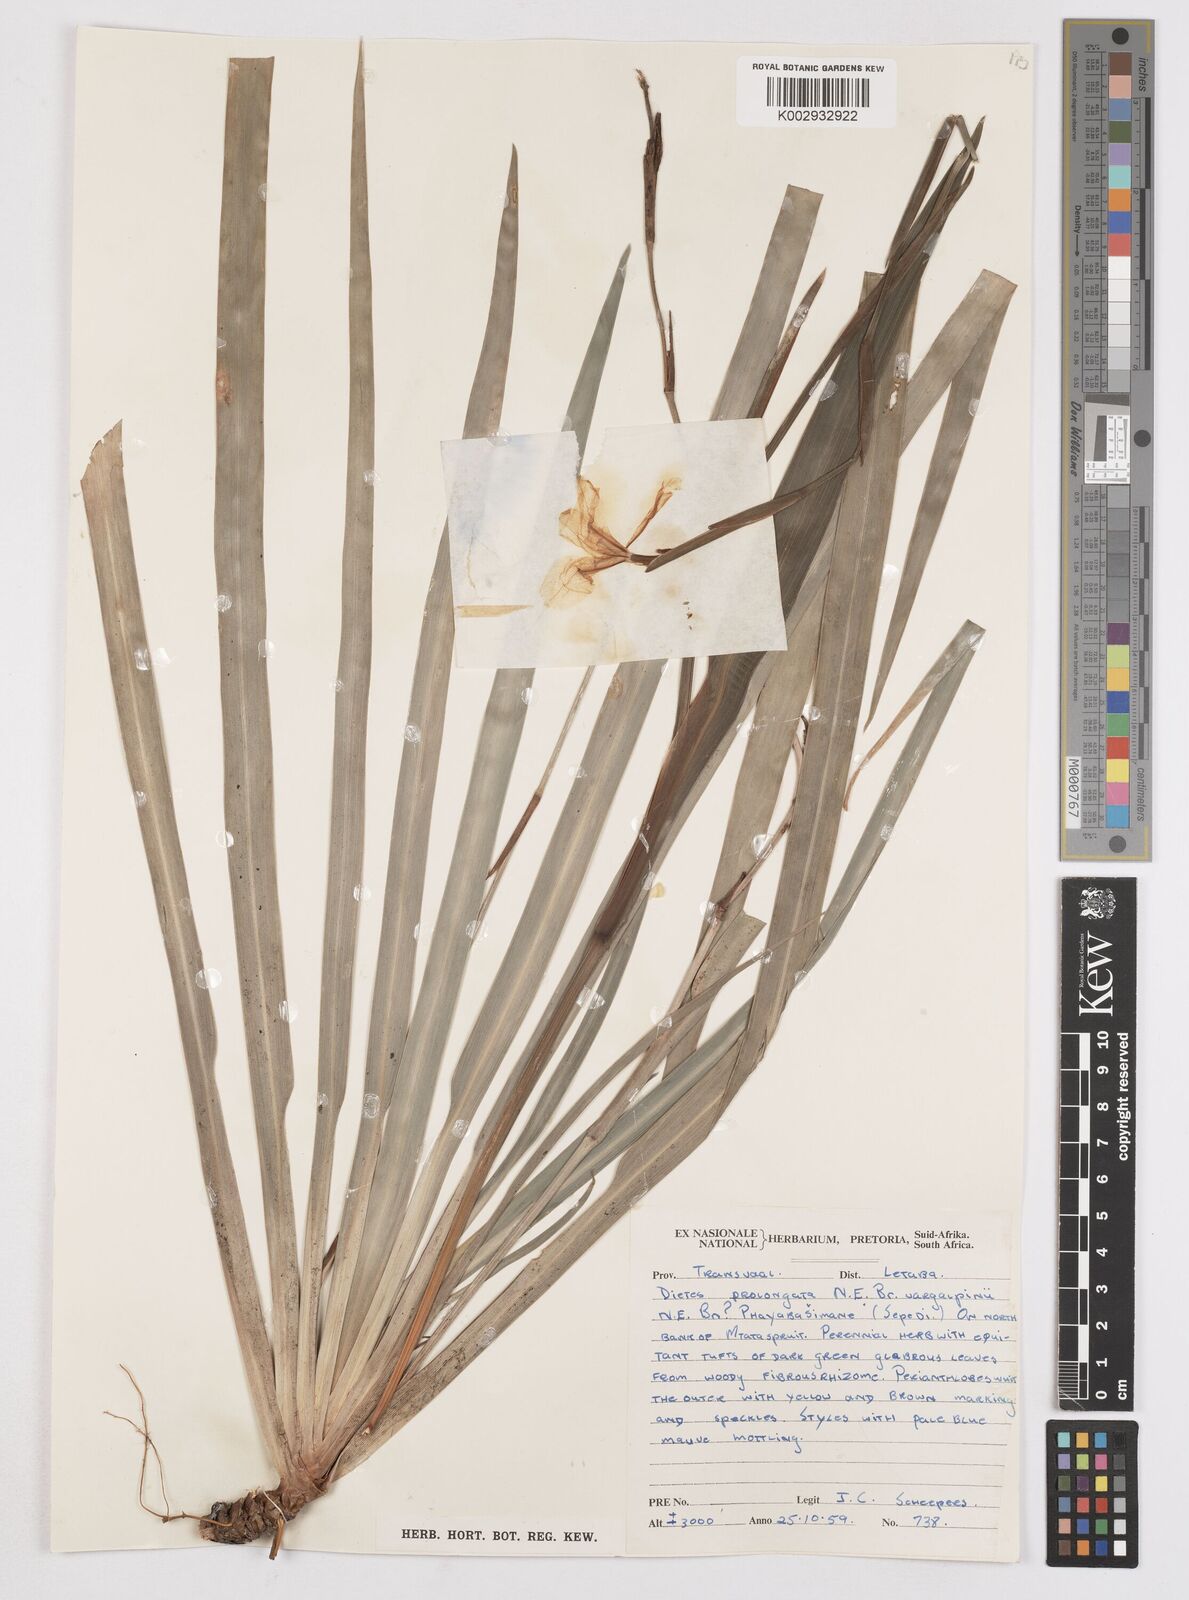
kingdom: Plantae
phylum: Tracheophyta
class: Liliopsida
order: Asparagales
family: Iridaceae
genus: Dietes
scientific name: Dietes iridioides
